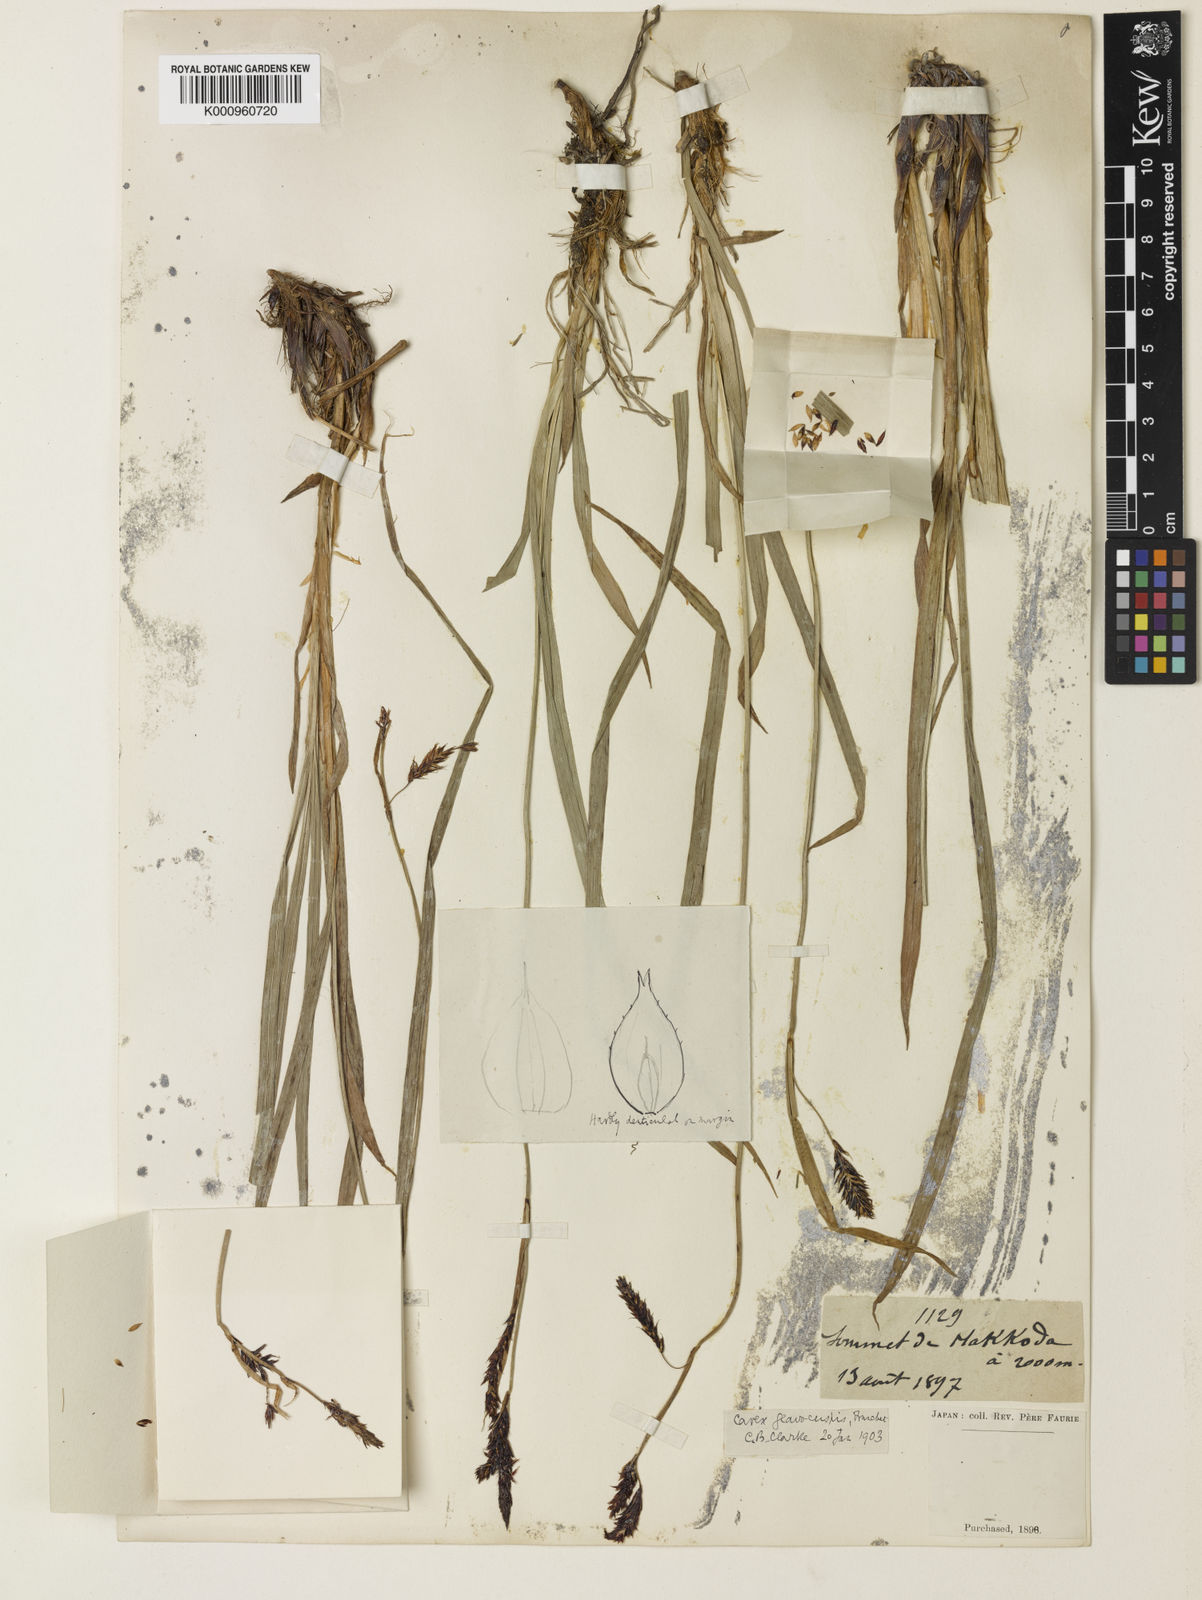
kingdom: Plantae
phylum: Tracheophyta
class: Liliopsida
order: Poales
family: Cyperaceae
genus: Carex
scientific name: Carex macrochaeta
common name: Alaska large awn sedge
